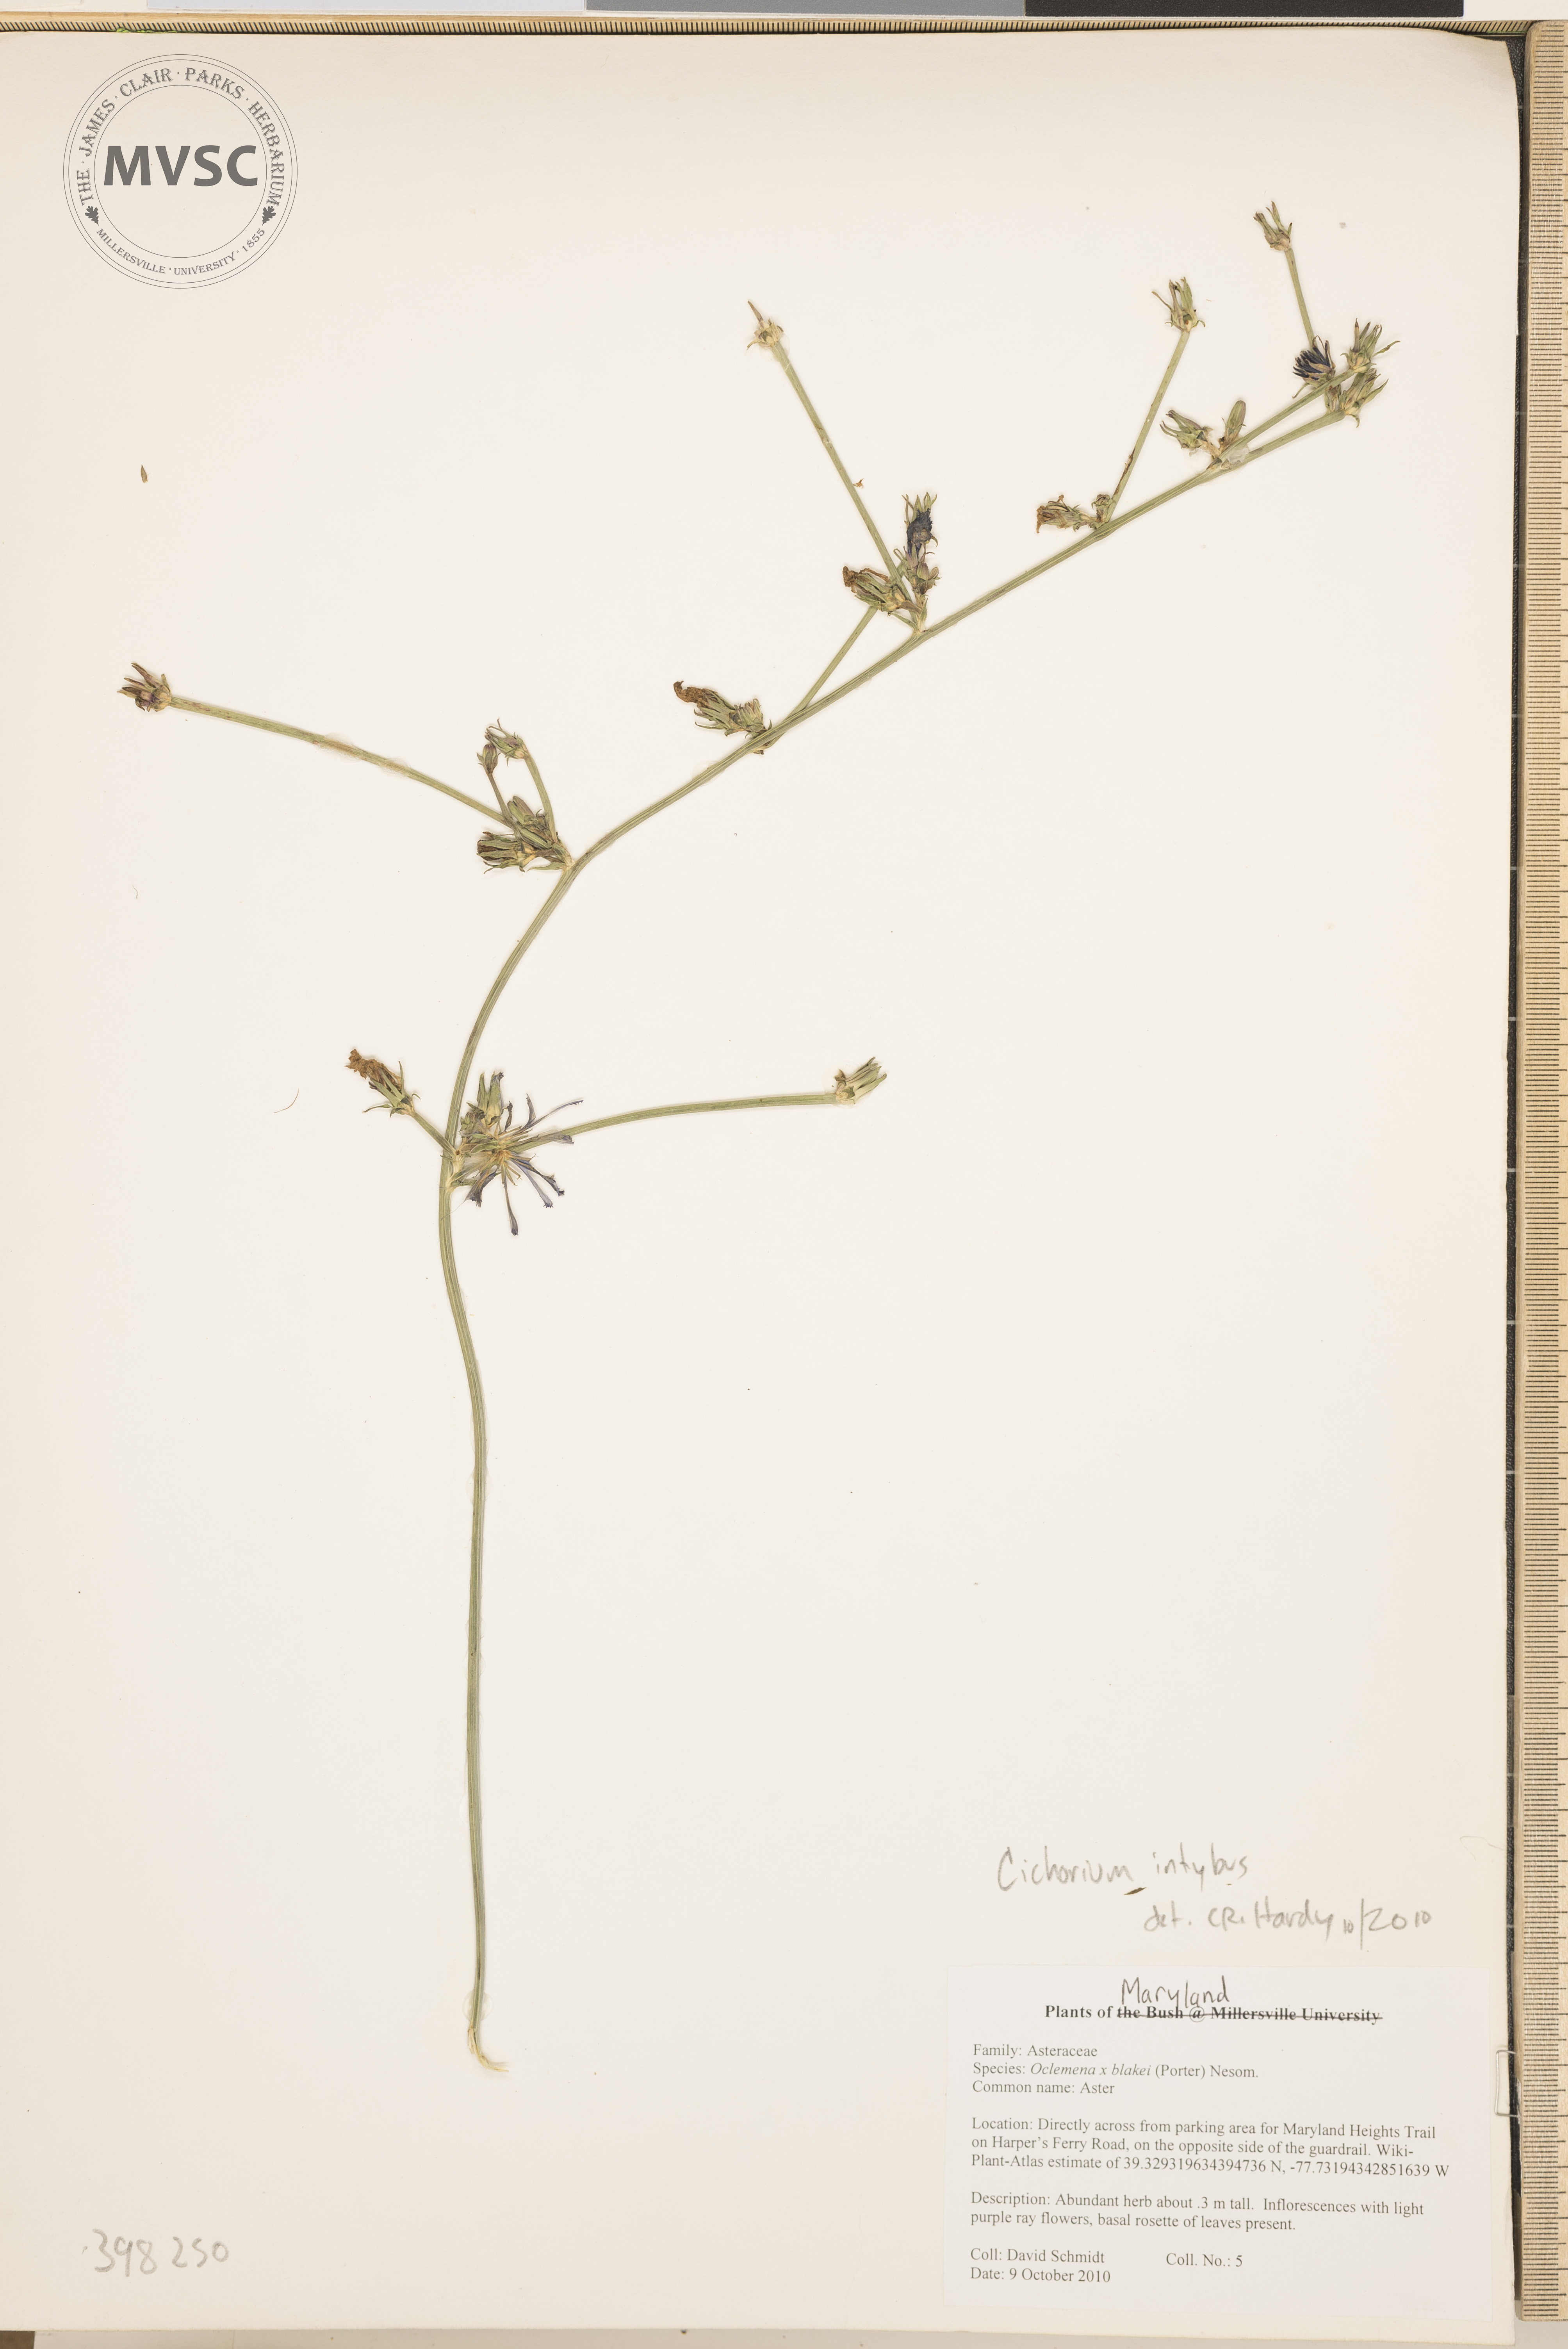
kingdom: Plantae
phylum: Tracheophyta
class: Magnoliopsida
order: Asterales
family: Asteraceae
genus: Cichorium
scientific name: Cichorium intybus
